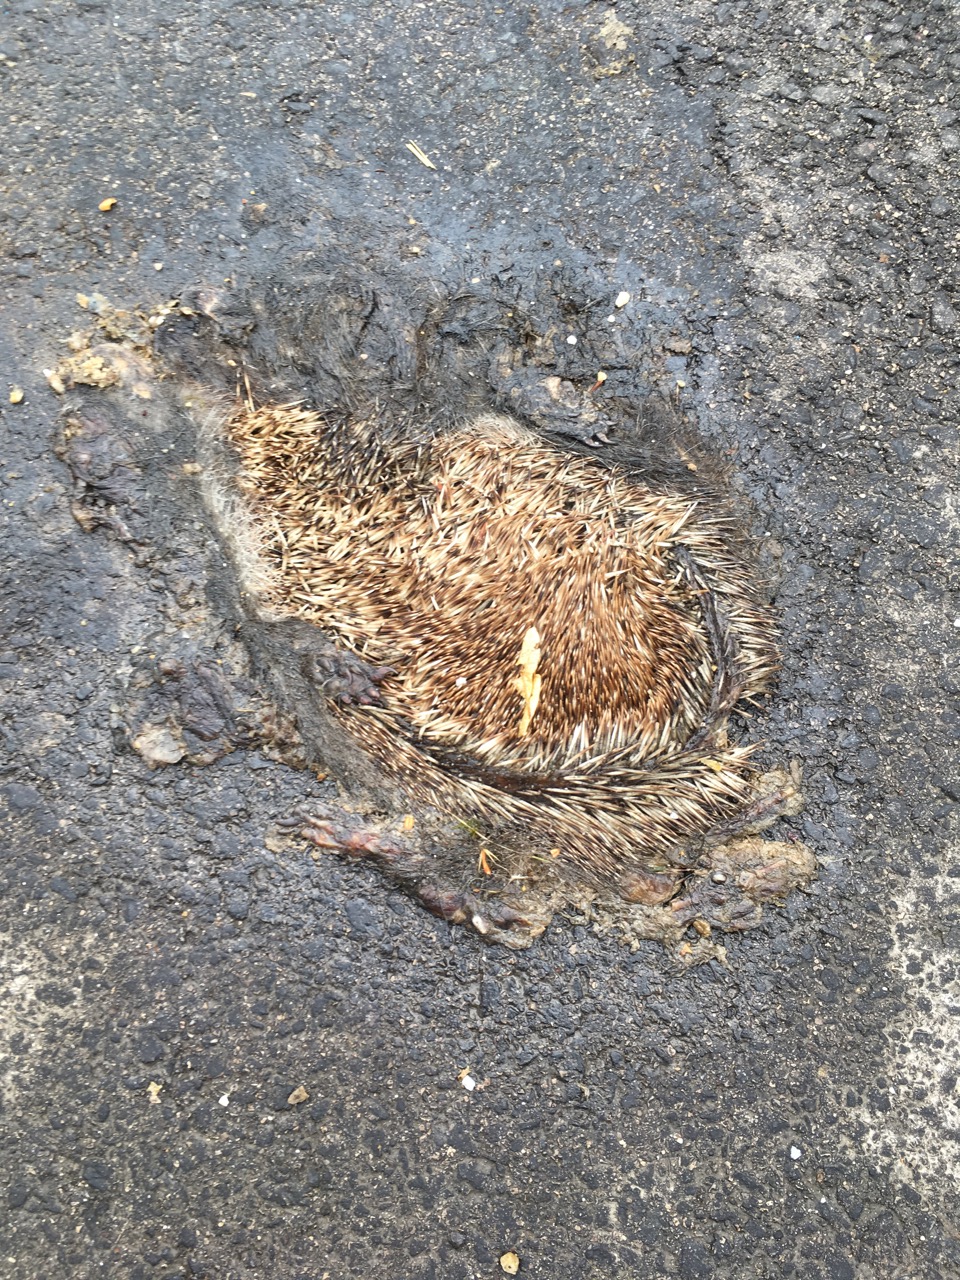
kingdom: Animalia
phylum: Chordata
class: Mammalia
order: Erinaceomorpha
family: Erinaceidae
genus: Erinaceus
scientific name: Erinaceus
